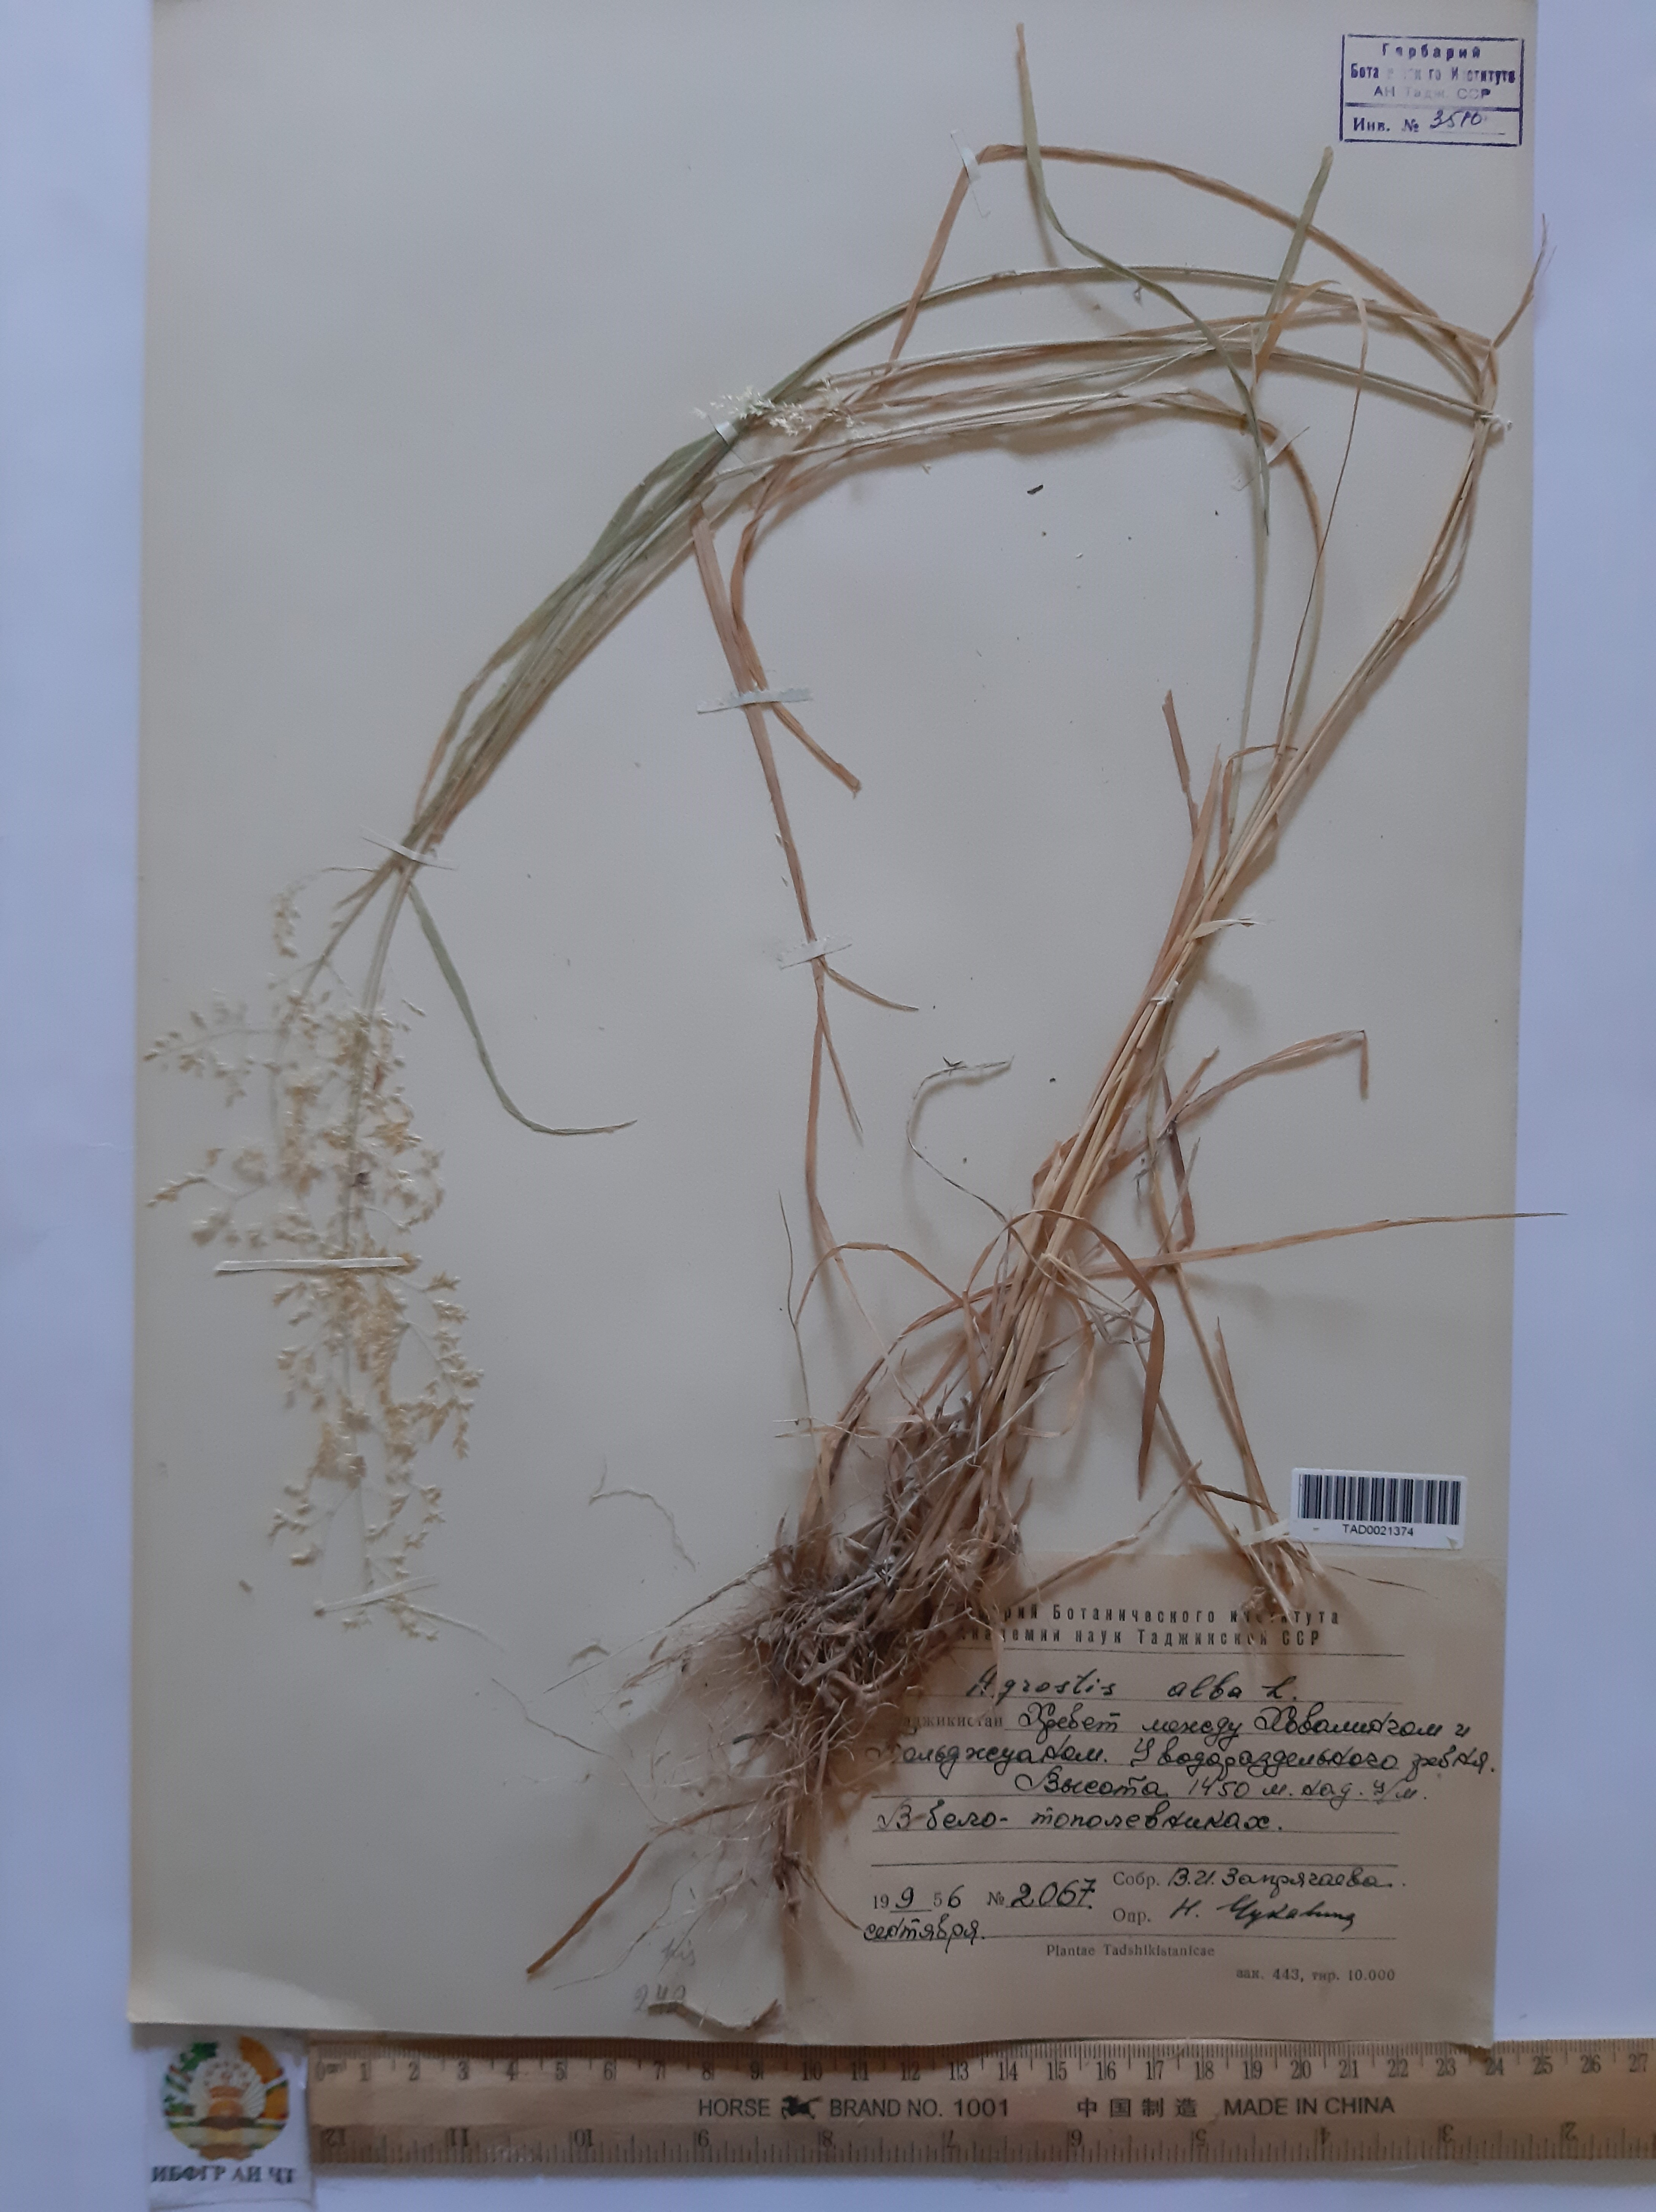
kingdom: Plantae
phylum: Tracheophyta
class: Liliopsida
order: Poales
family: Poaceae
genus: Poa
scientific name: Poa nemoralis
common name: Wood bluegrass
